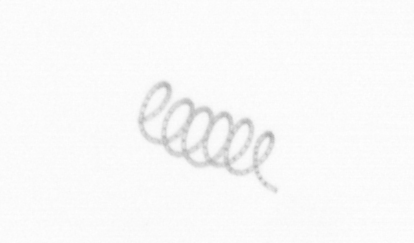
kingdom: Chromista
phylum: Ochrophyta
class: Bacillariophyceae
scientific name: Bacillariophyceae
